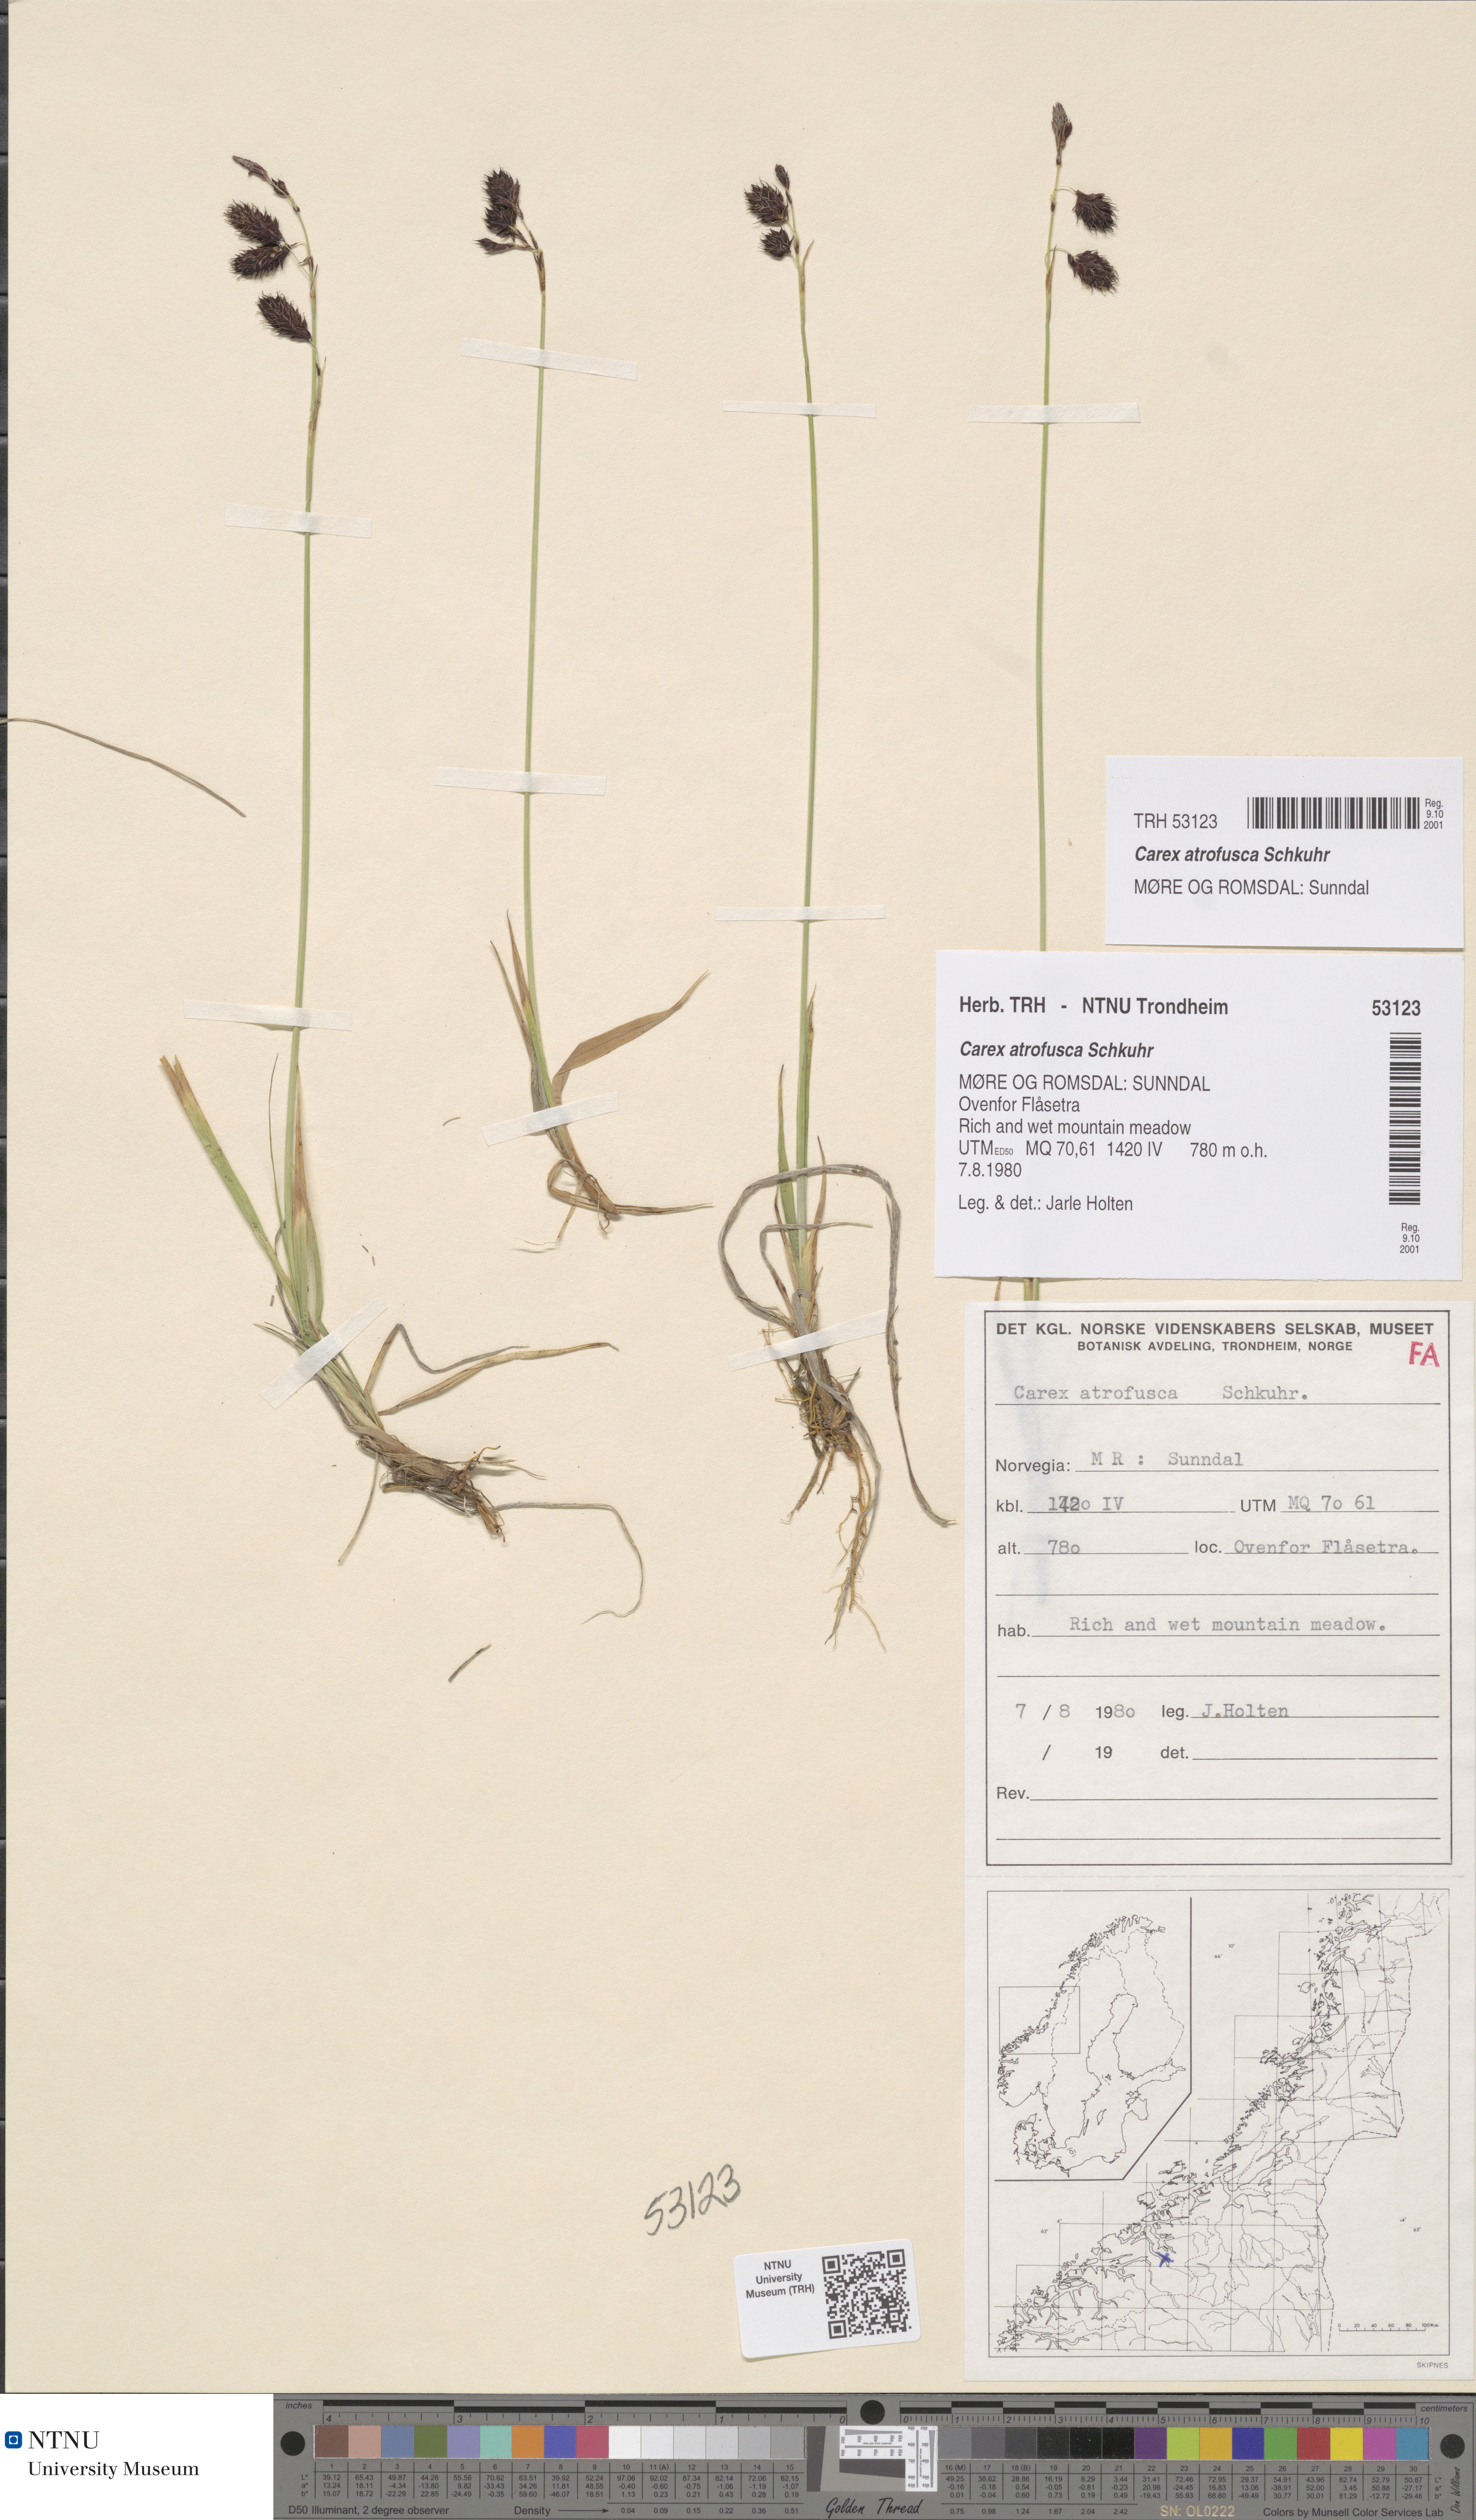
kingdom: Plantae
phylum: Tracheophyta
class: Liliopsida
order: Poales
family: Cyperaceae
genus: Carex
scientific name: Carex atrofusca
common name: Scorched alpine-sedge
